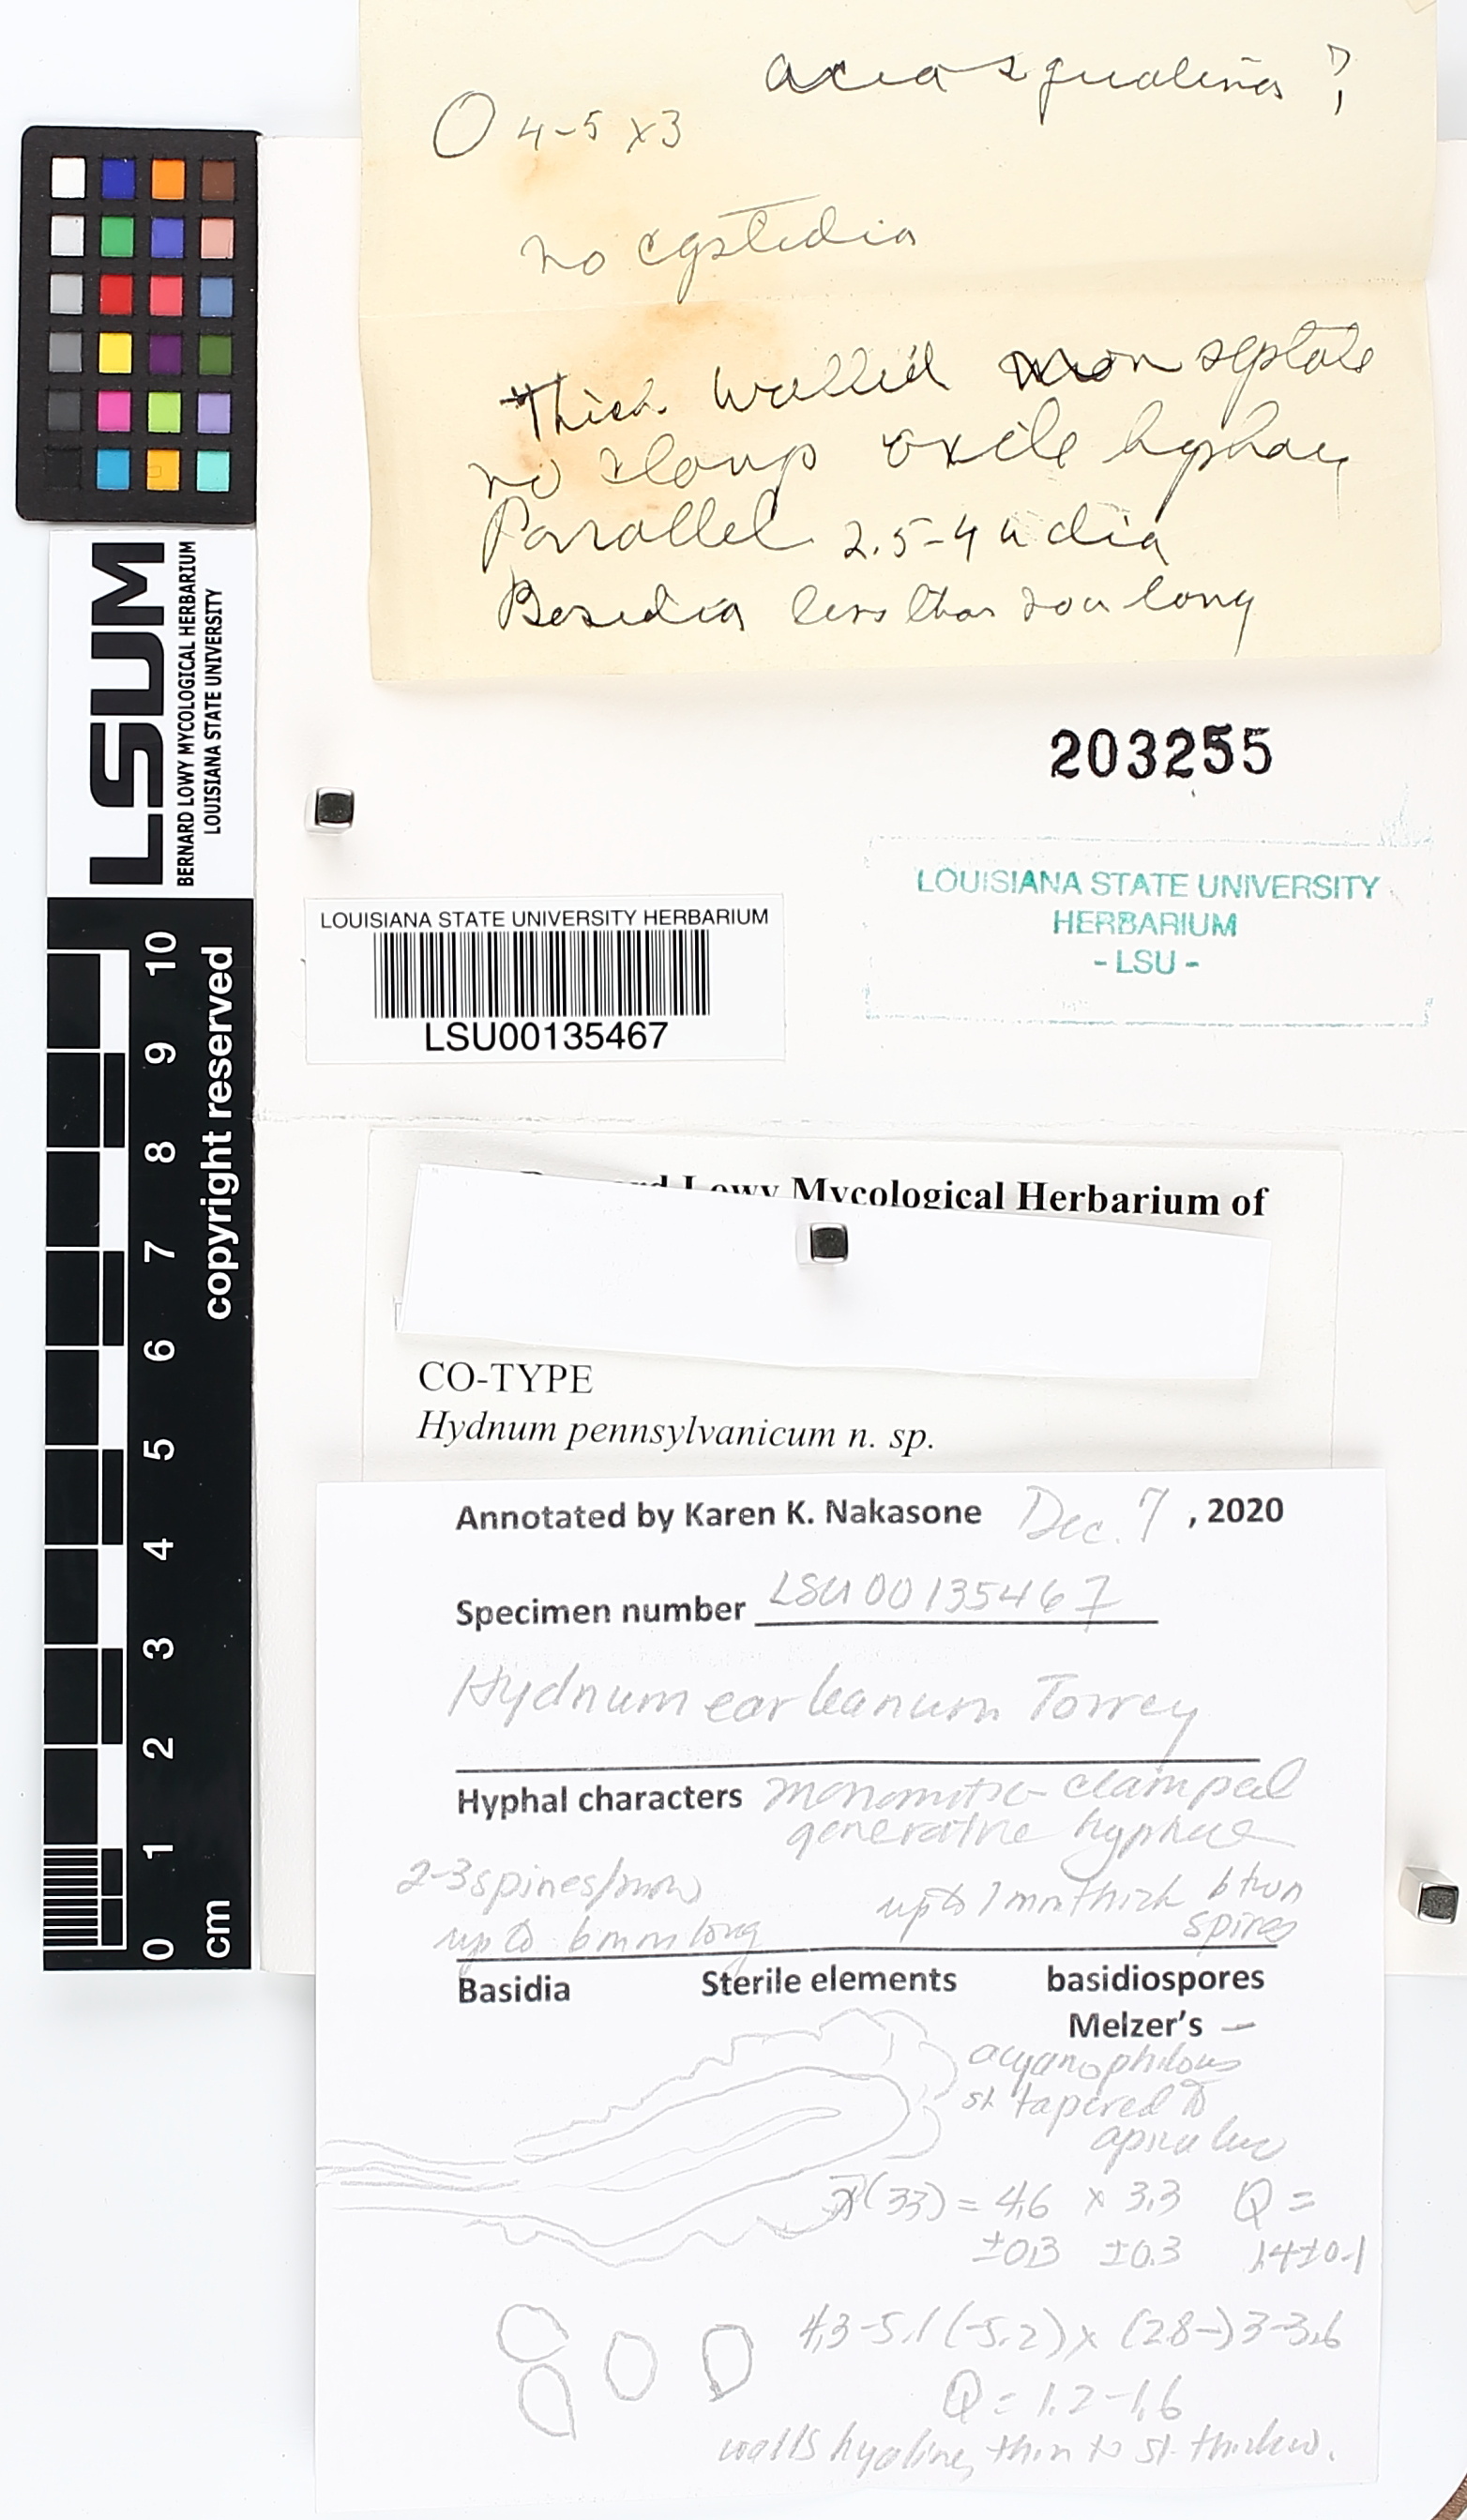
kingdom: Fungi
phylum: Basidiomycota
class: Agaricomycetes
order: Polyporales
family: Meruliaceae
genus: Sarcodontia
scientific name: Sarcodontia setosa
